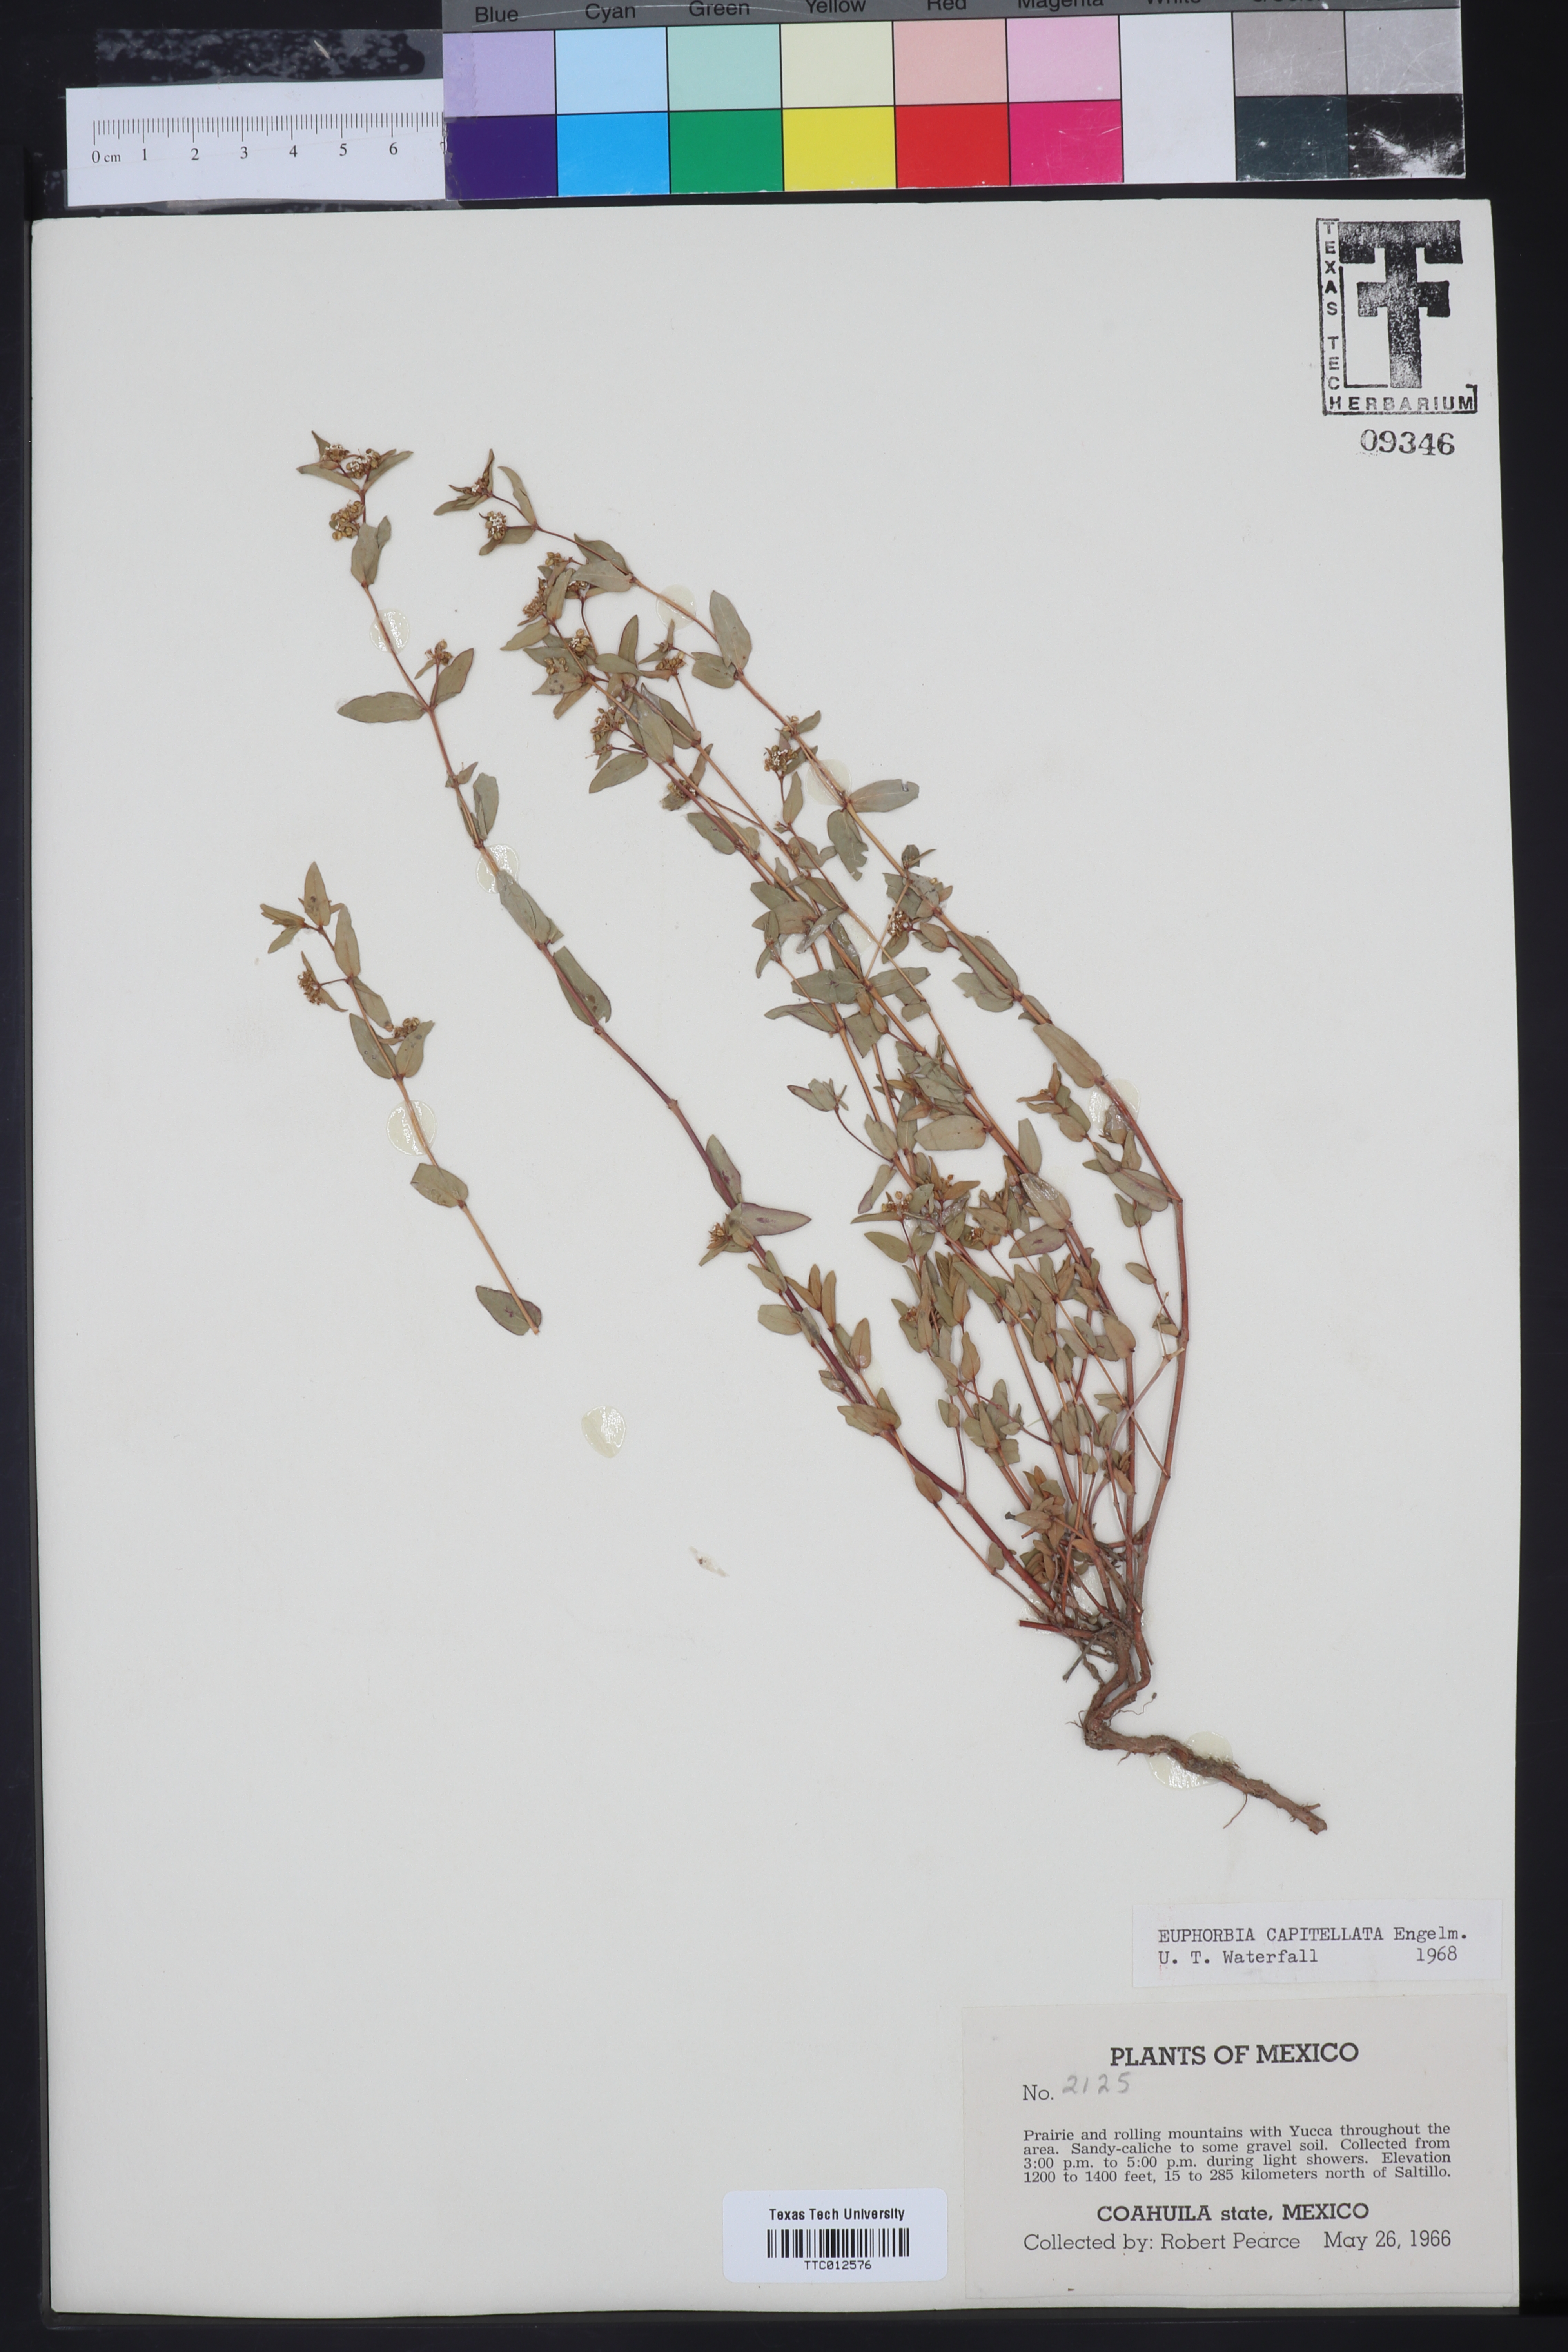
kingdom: Plantae
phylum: Tracheophyta
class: Magnoliopsida
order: Malpighiales
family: Euphorbiaceae
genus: Euphorbia
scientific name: Euphorbia capitellata
